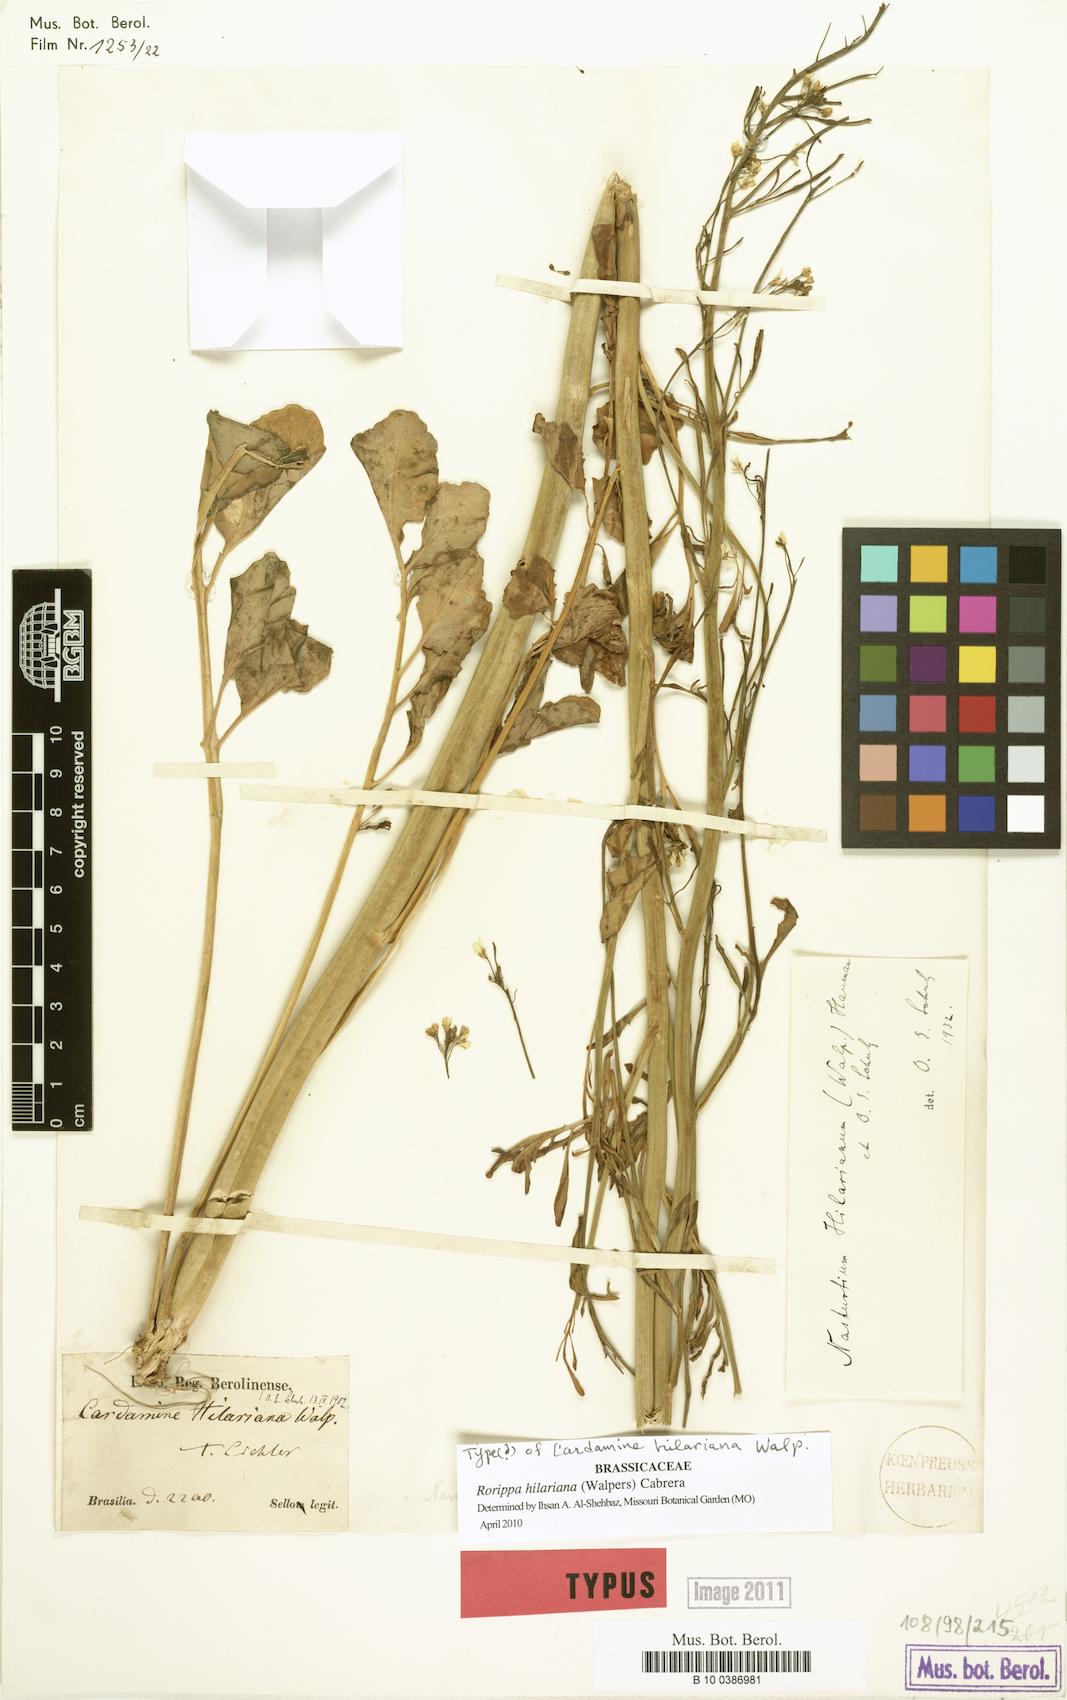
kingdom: Plantae
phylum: Tracheophyta
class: Magnoliopsida
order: Brassicales
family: Brassicaceae
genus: Rorippa
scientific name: Rorippa hilariana
